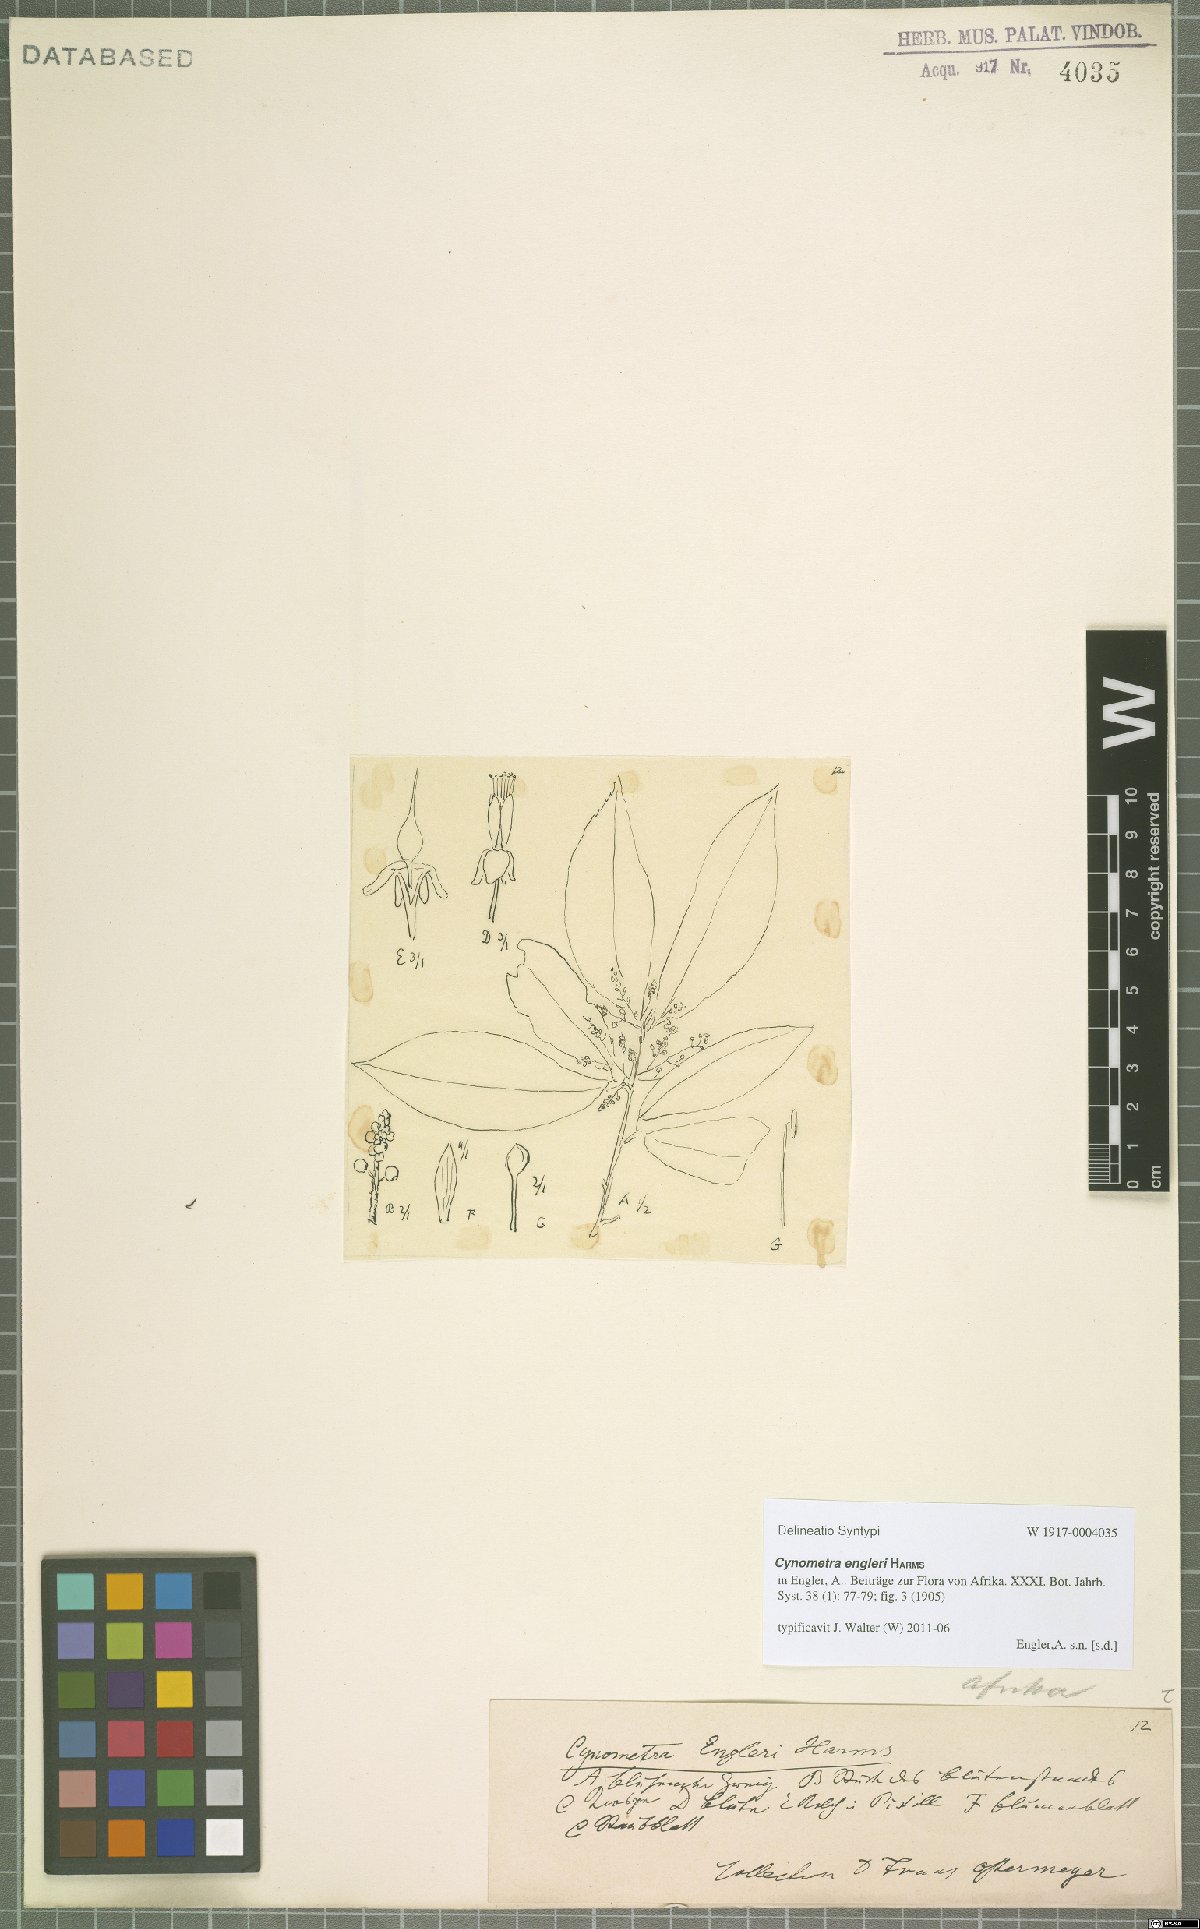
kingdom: Plantae
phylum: Tracheophyta
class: Magnoliopsida
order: Fabales
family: Fabaceae
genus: Cynometra
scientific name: Cynometra engleri
